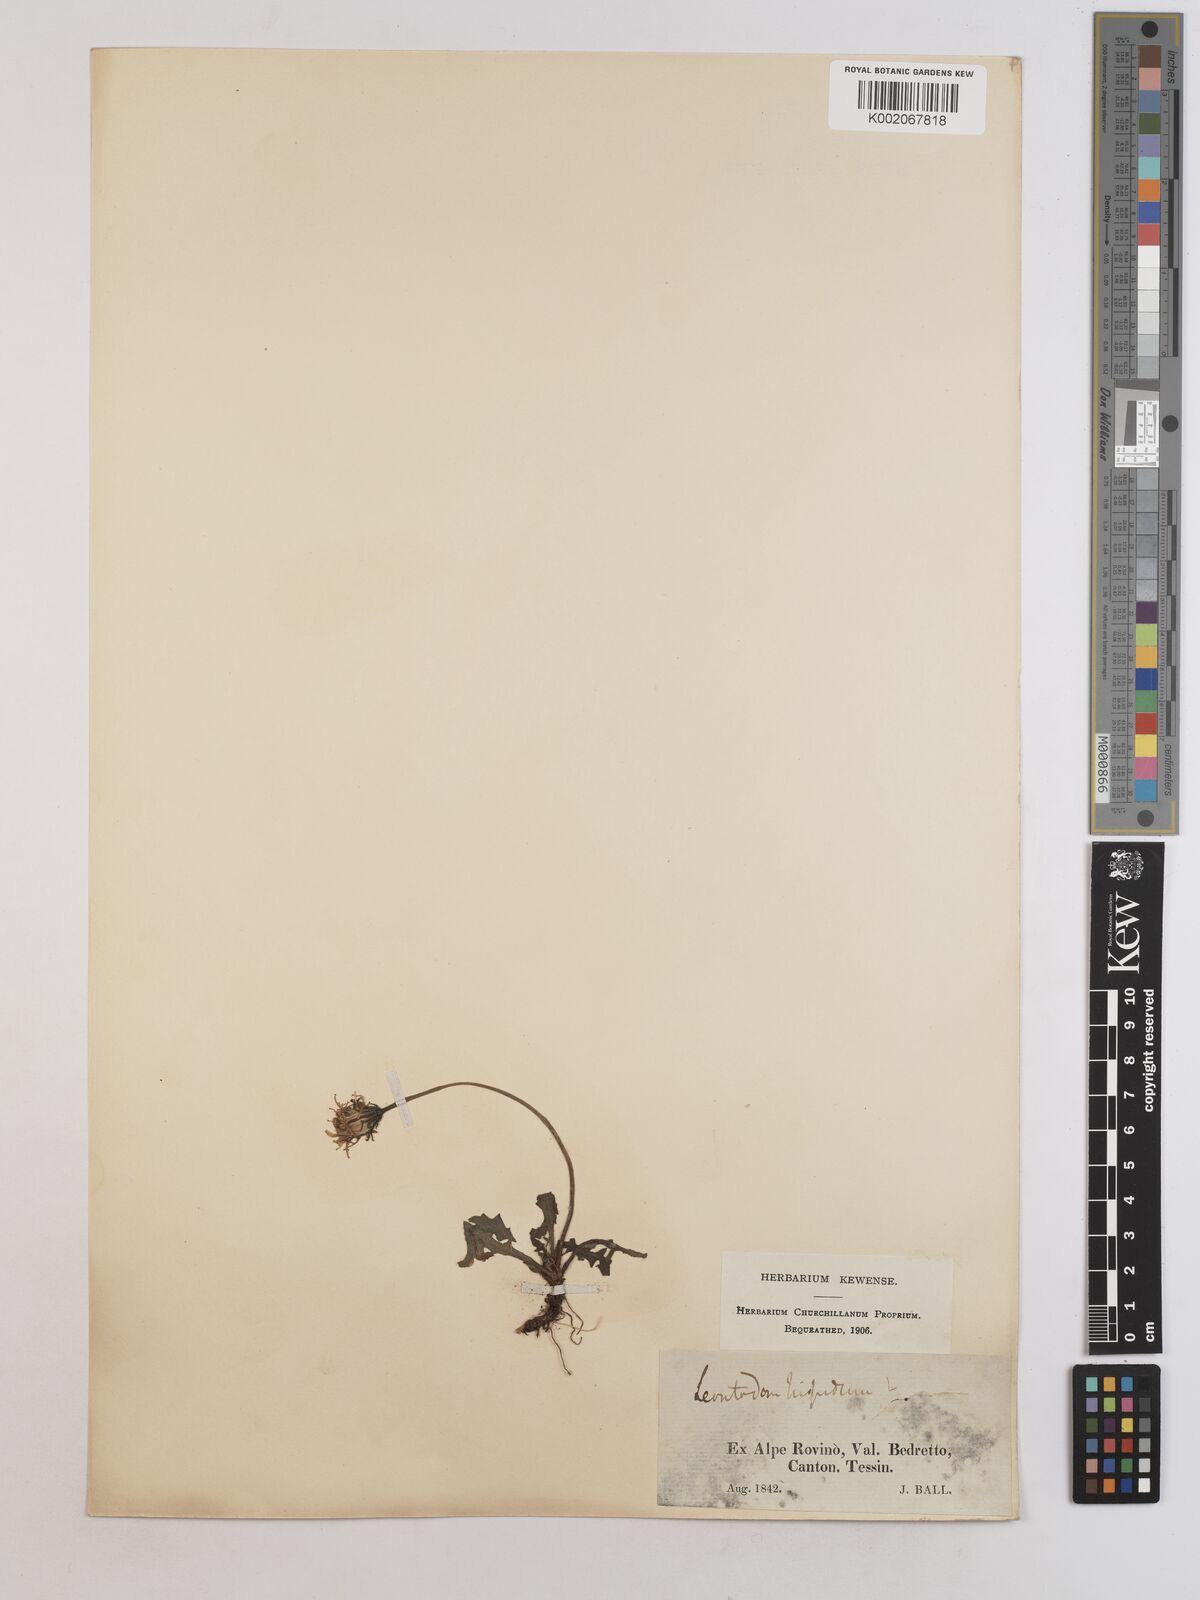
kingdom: Plantae
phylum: Tracheophyta
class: Magnoliopsida
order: Asterales
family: Asteraceae
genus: Leontodon
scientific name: Leontodon hispidus
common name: Rough hawkbit
